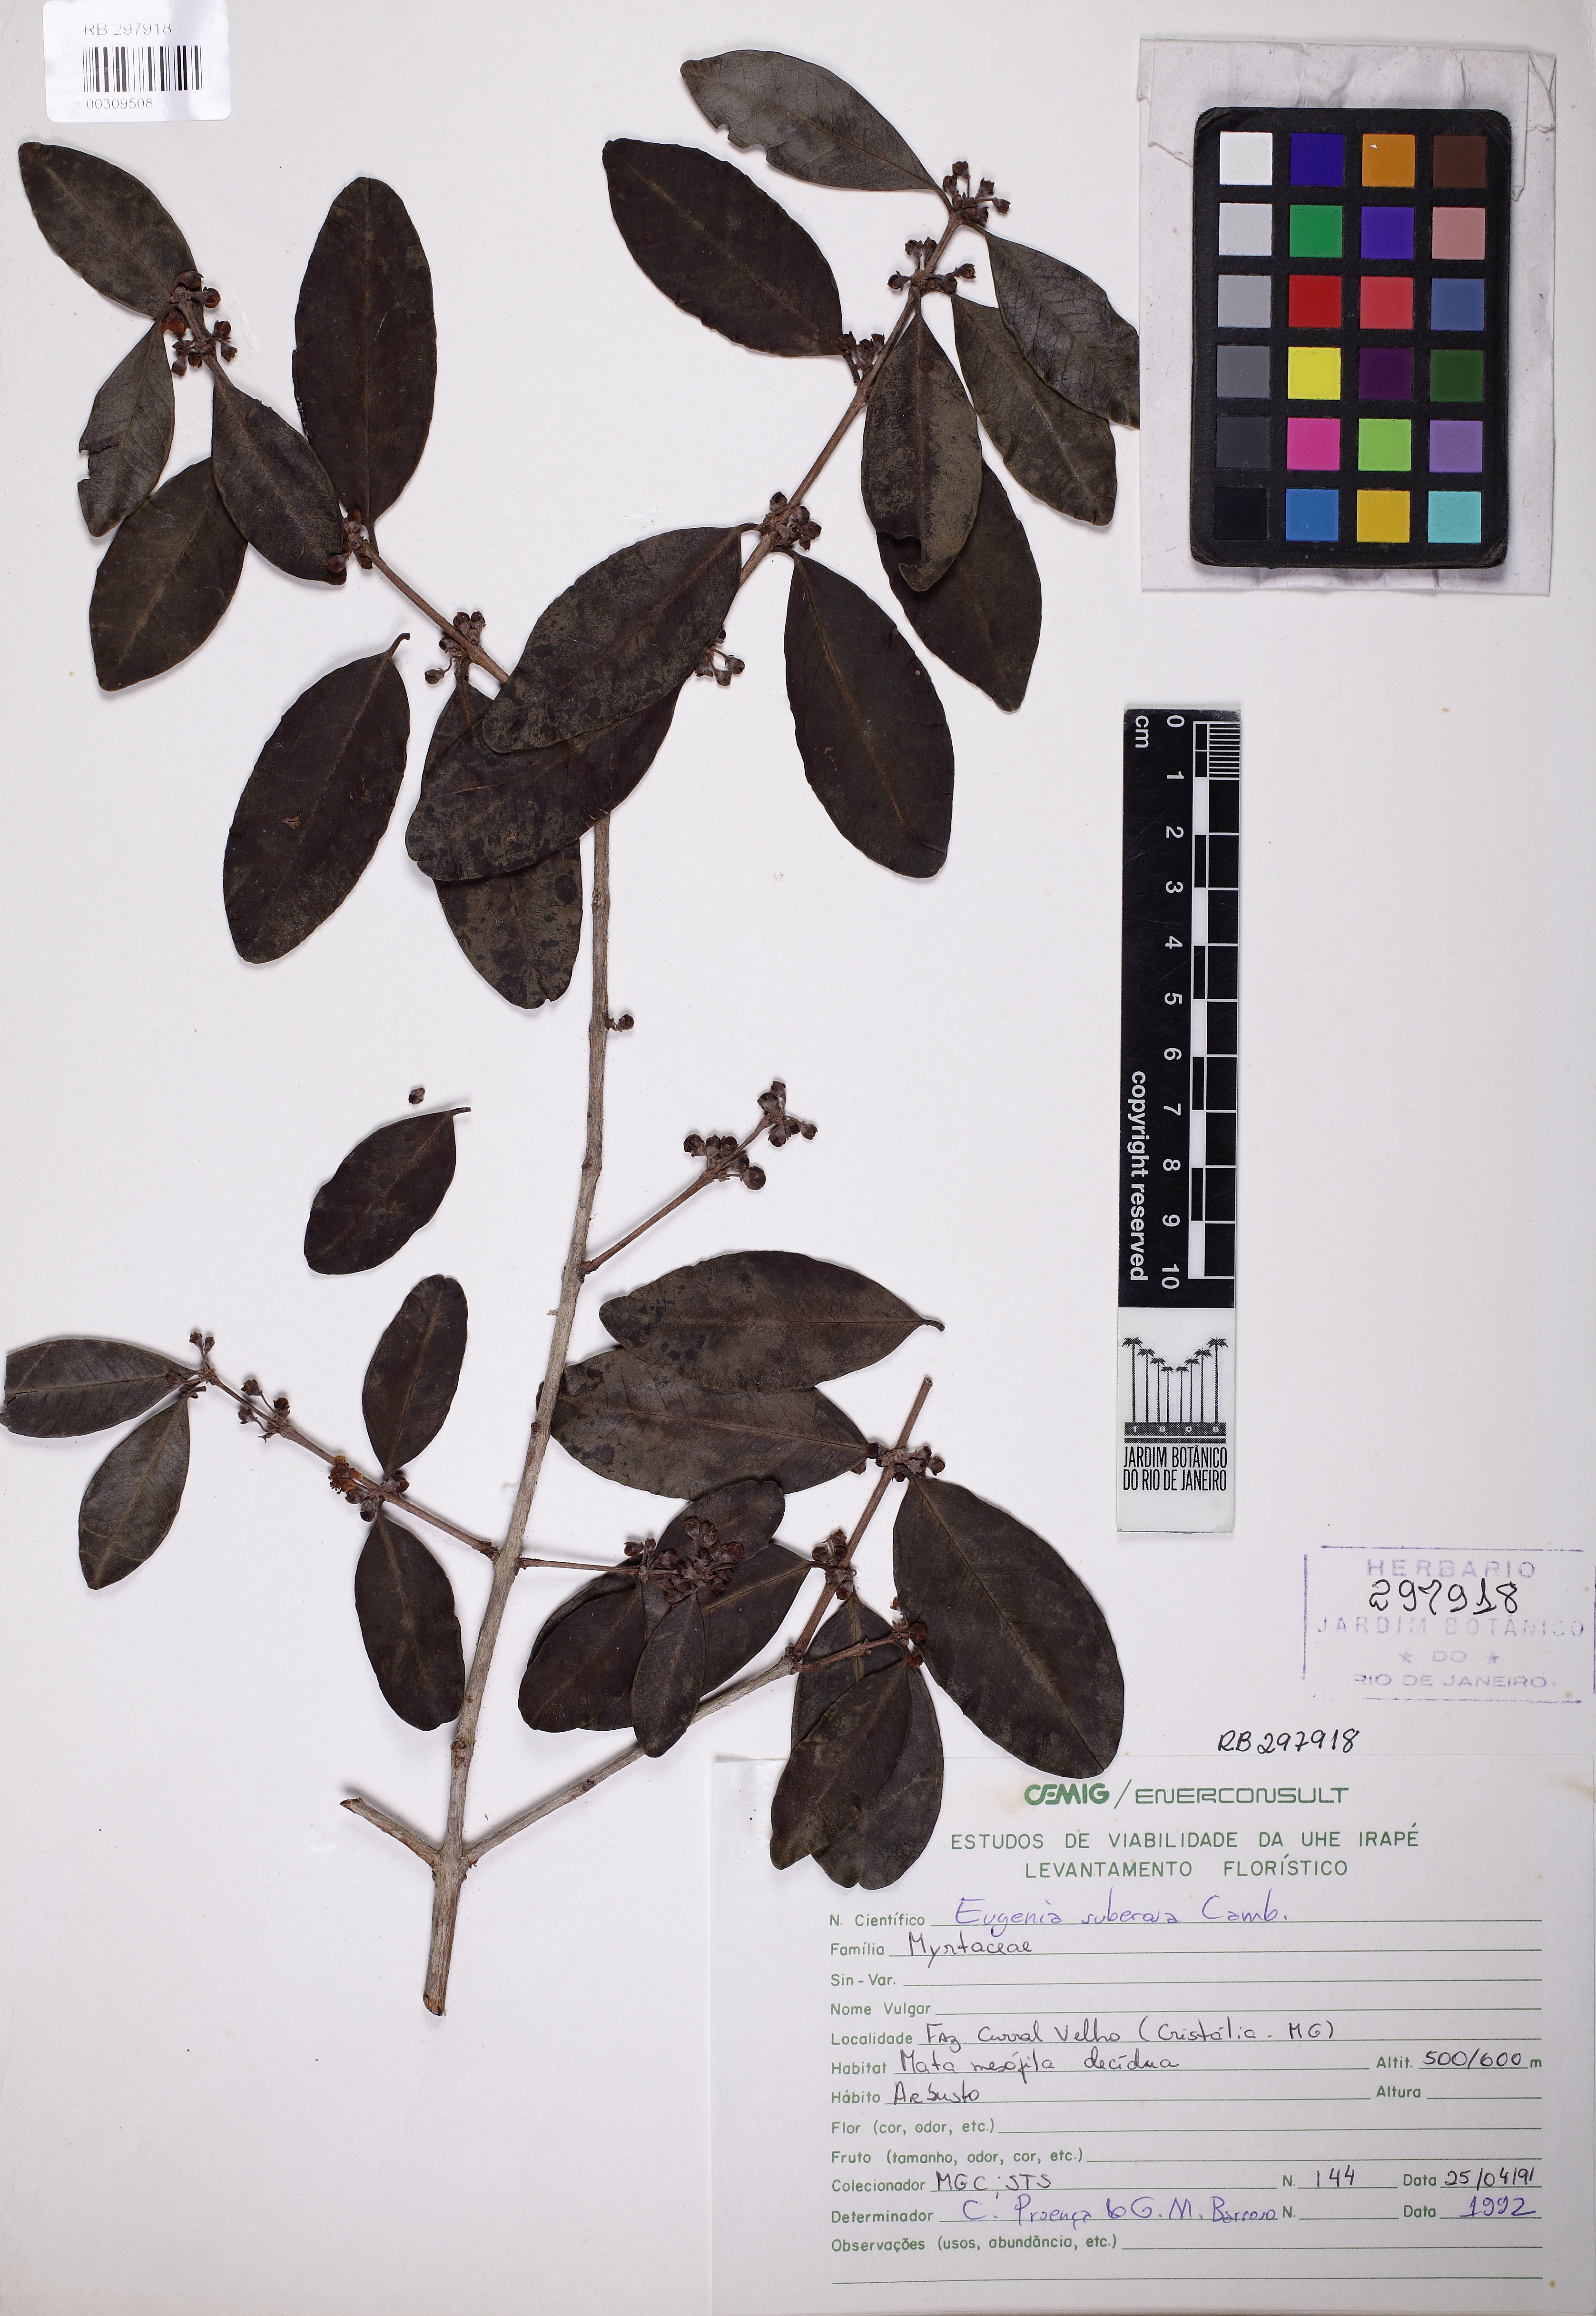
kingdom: Plantae
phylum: Tracheophyta
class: Magnoliopsida
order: Myrtales
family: Myrtaceae
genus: Eugenia
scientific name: Eugenia suberosa
